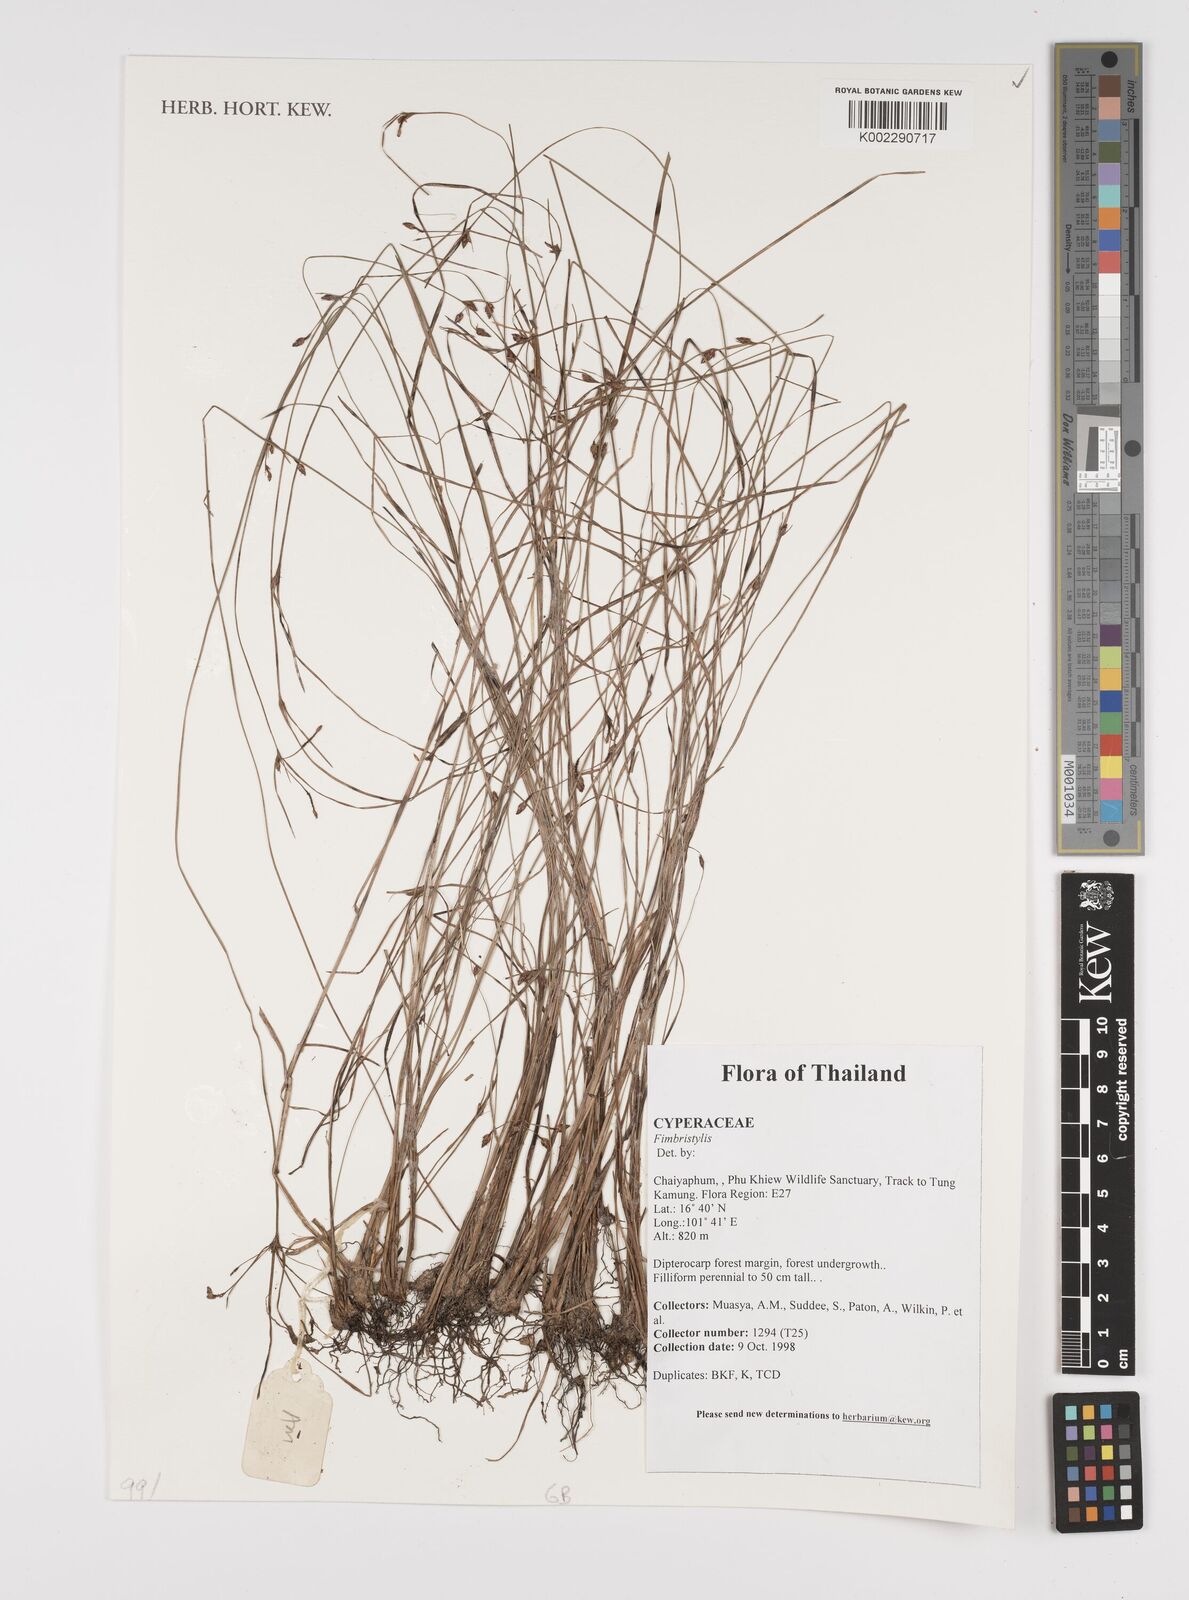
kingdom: Plantae
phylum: Tracheophyta
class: Liliopsida
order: Poales
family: Cyperaceae
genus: Fimbristylis
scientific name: Fimbristylis
